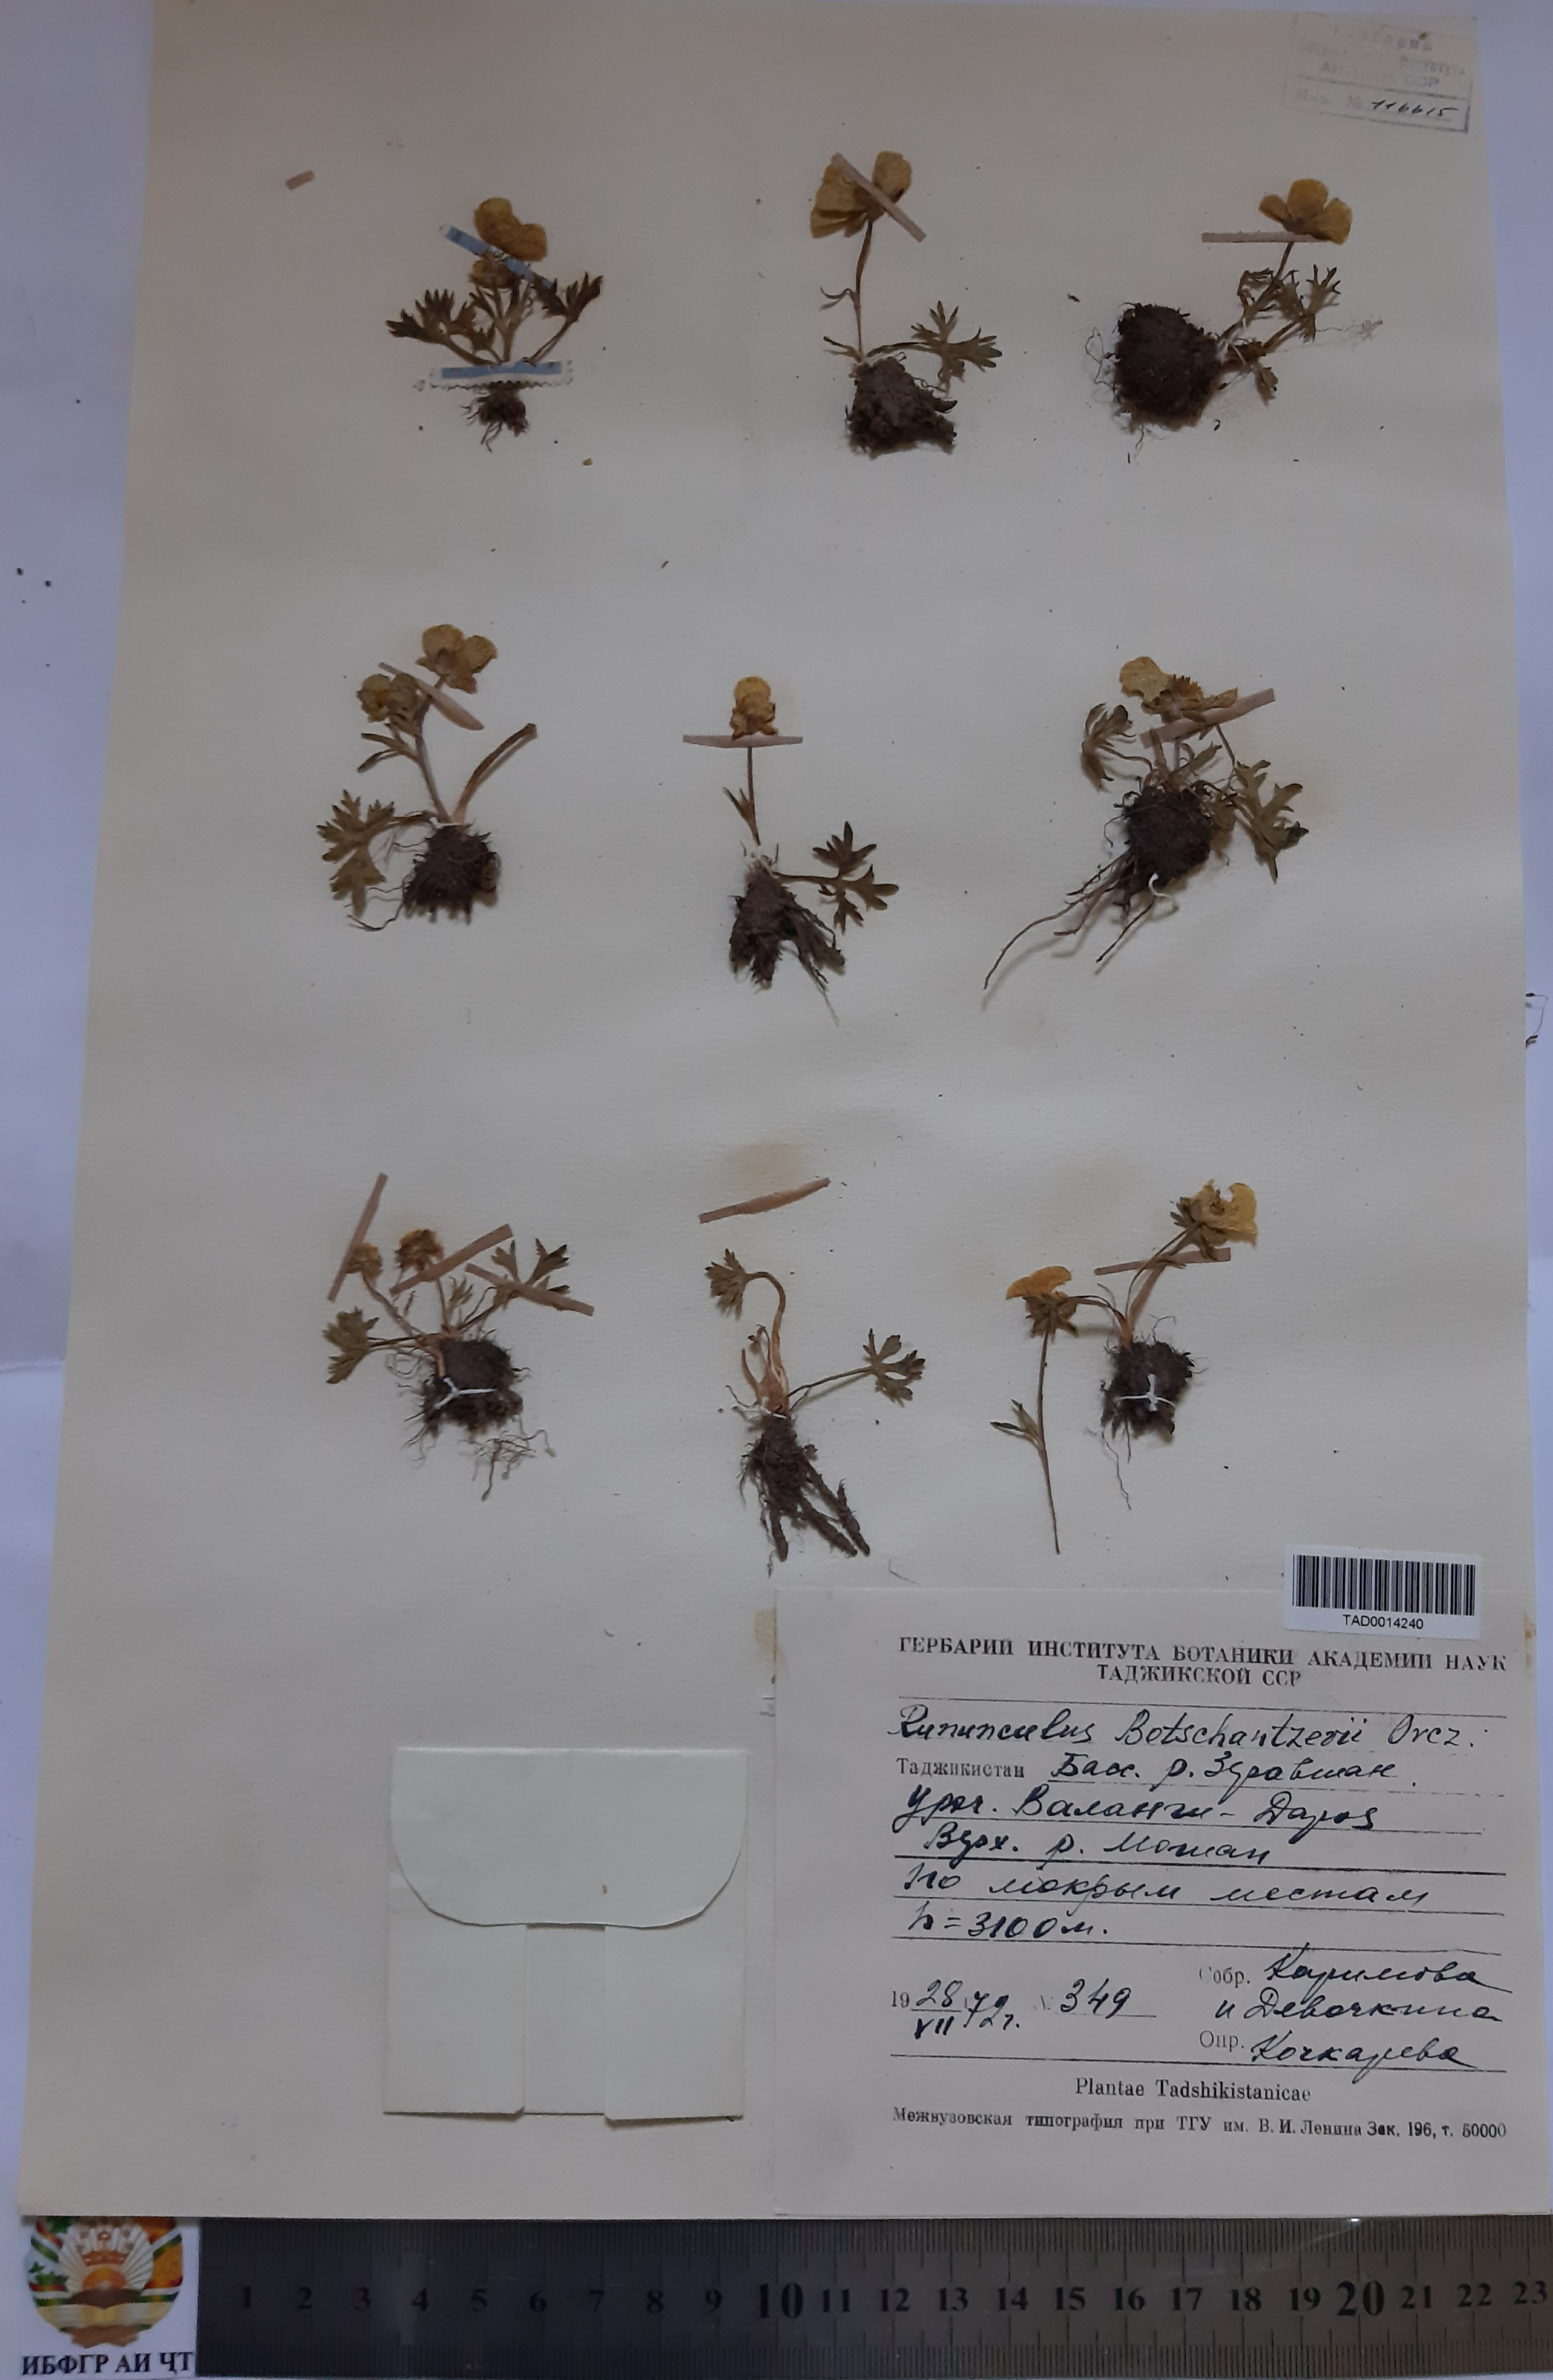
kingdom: Plantae
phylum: Tracheophyta
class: Magnoliopsida
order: Ranunculales
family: Ranunculaceae
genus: Ranunculus
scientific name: Ranunculus botschantzevii
